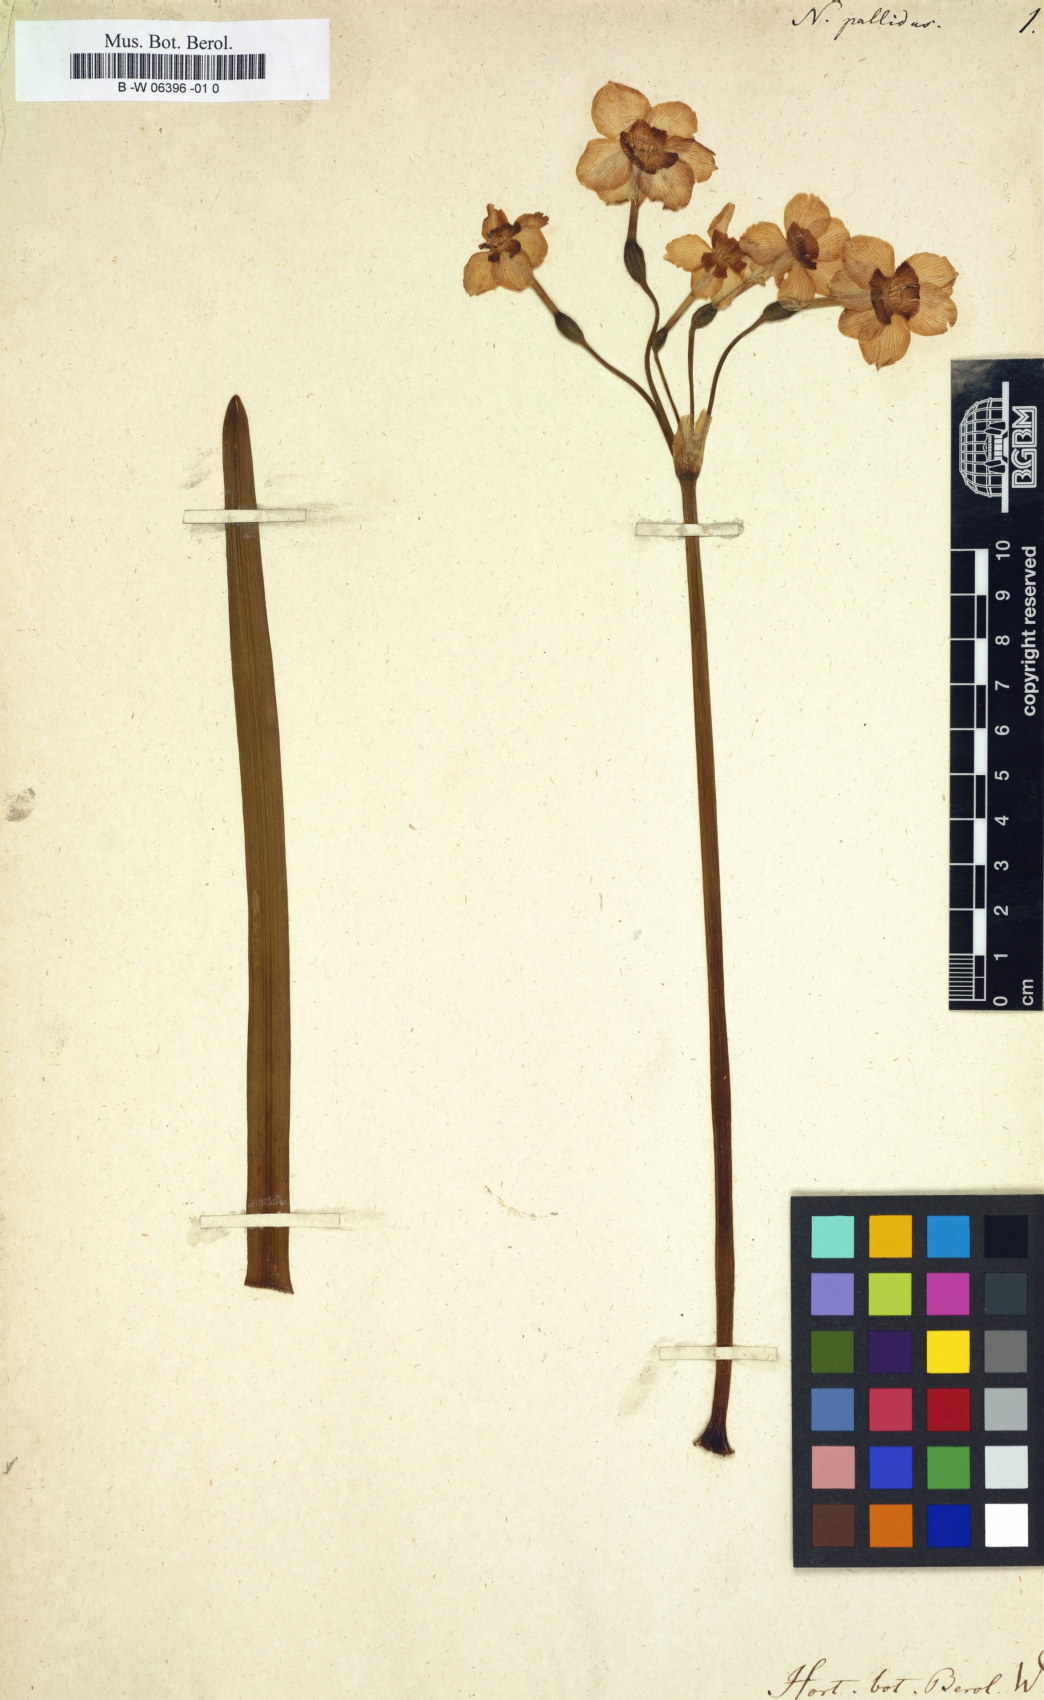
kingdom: Plantae
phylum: Tracheophyta
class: Liliopsida
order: Asparagales
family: Amaryllidaceae
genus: Narcissus
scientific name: Narcissus
